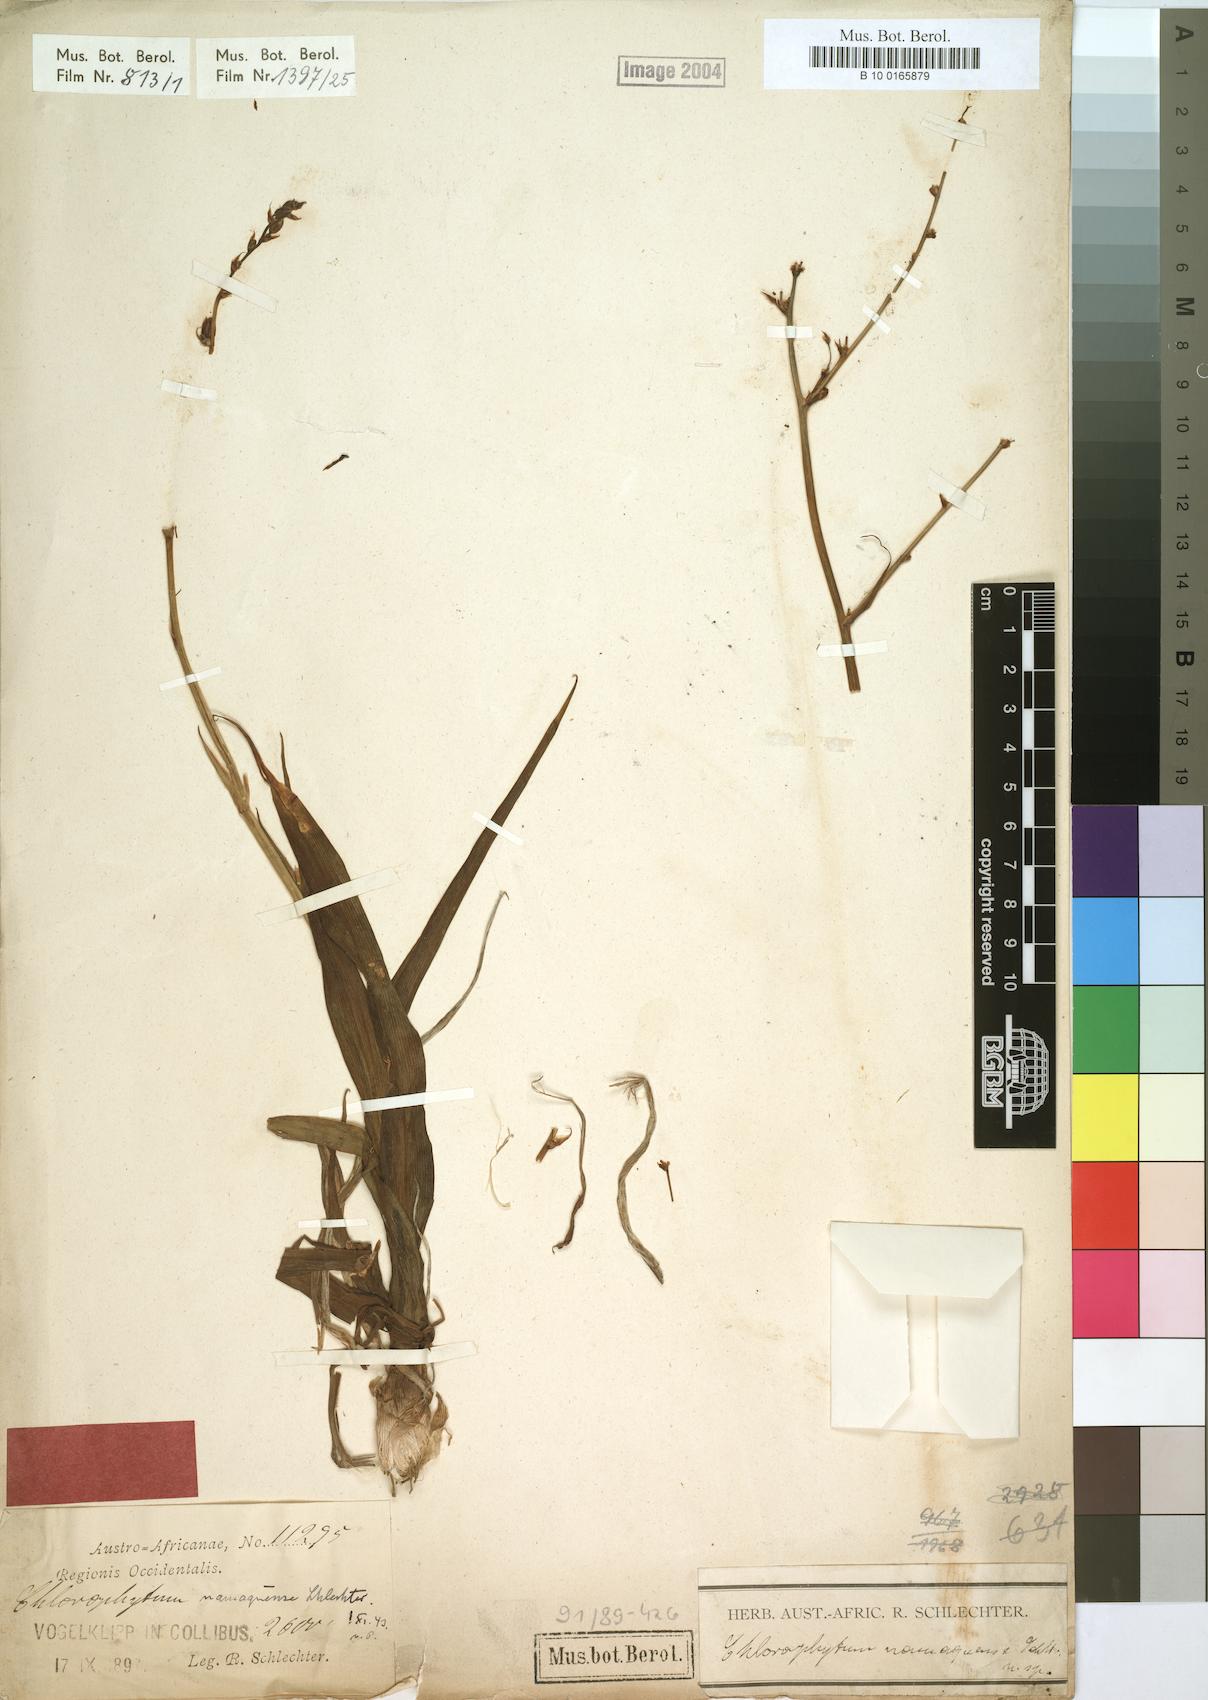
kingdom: Plantae
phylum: Tracheophyta
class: Liliopsida
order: Asparagales
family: Asparagaceae
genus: Chlorophytum
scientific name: Chlorophytum namaquense
